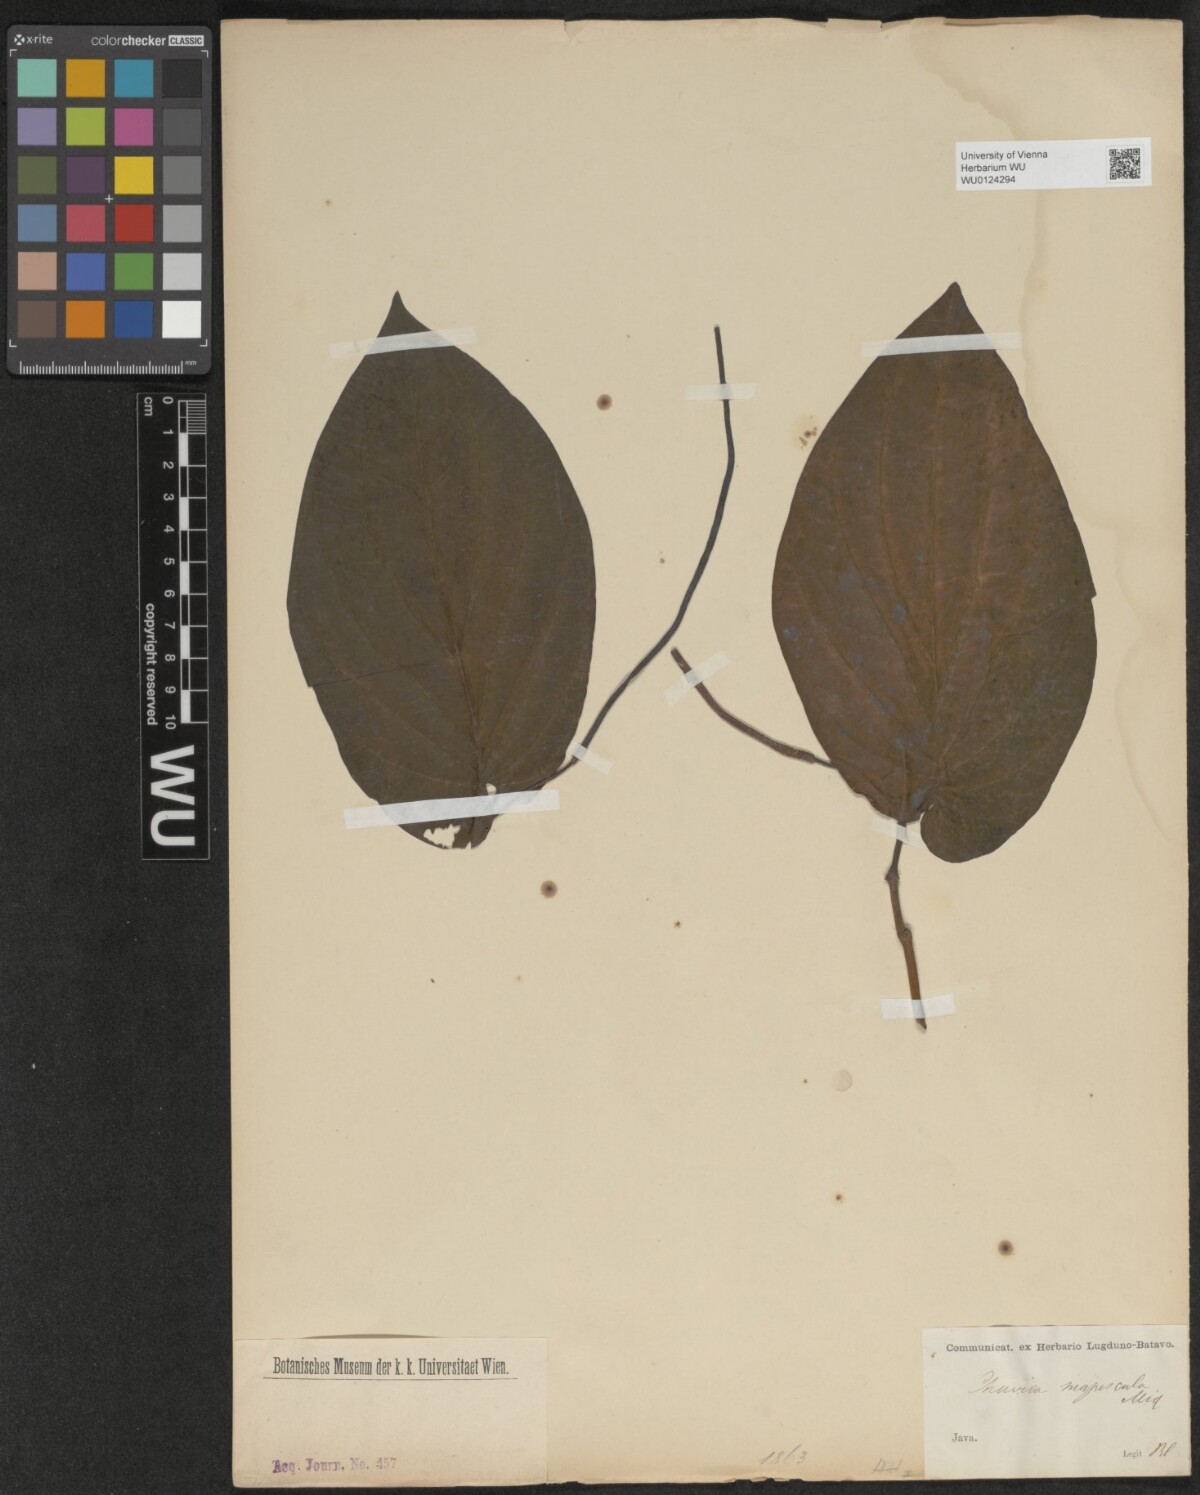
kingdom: Plantae
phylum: Tracheophyta
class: Magnoliopsida
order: Piperales
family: Piperaceae
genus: Piper
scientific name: Piper majusculum
